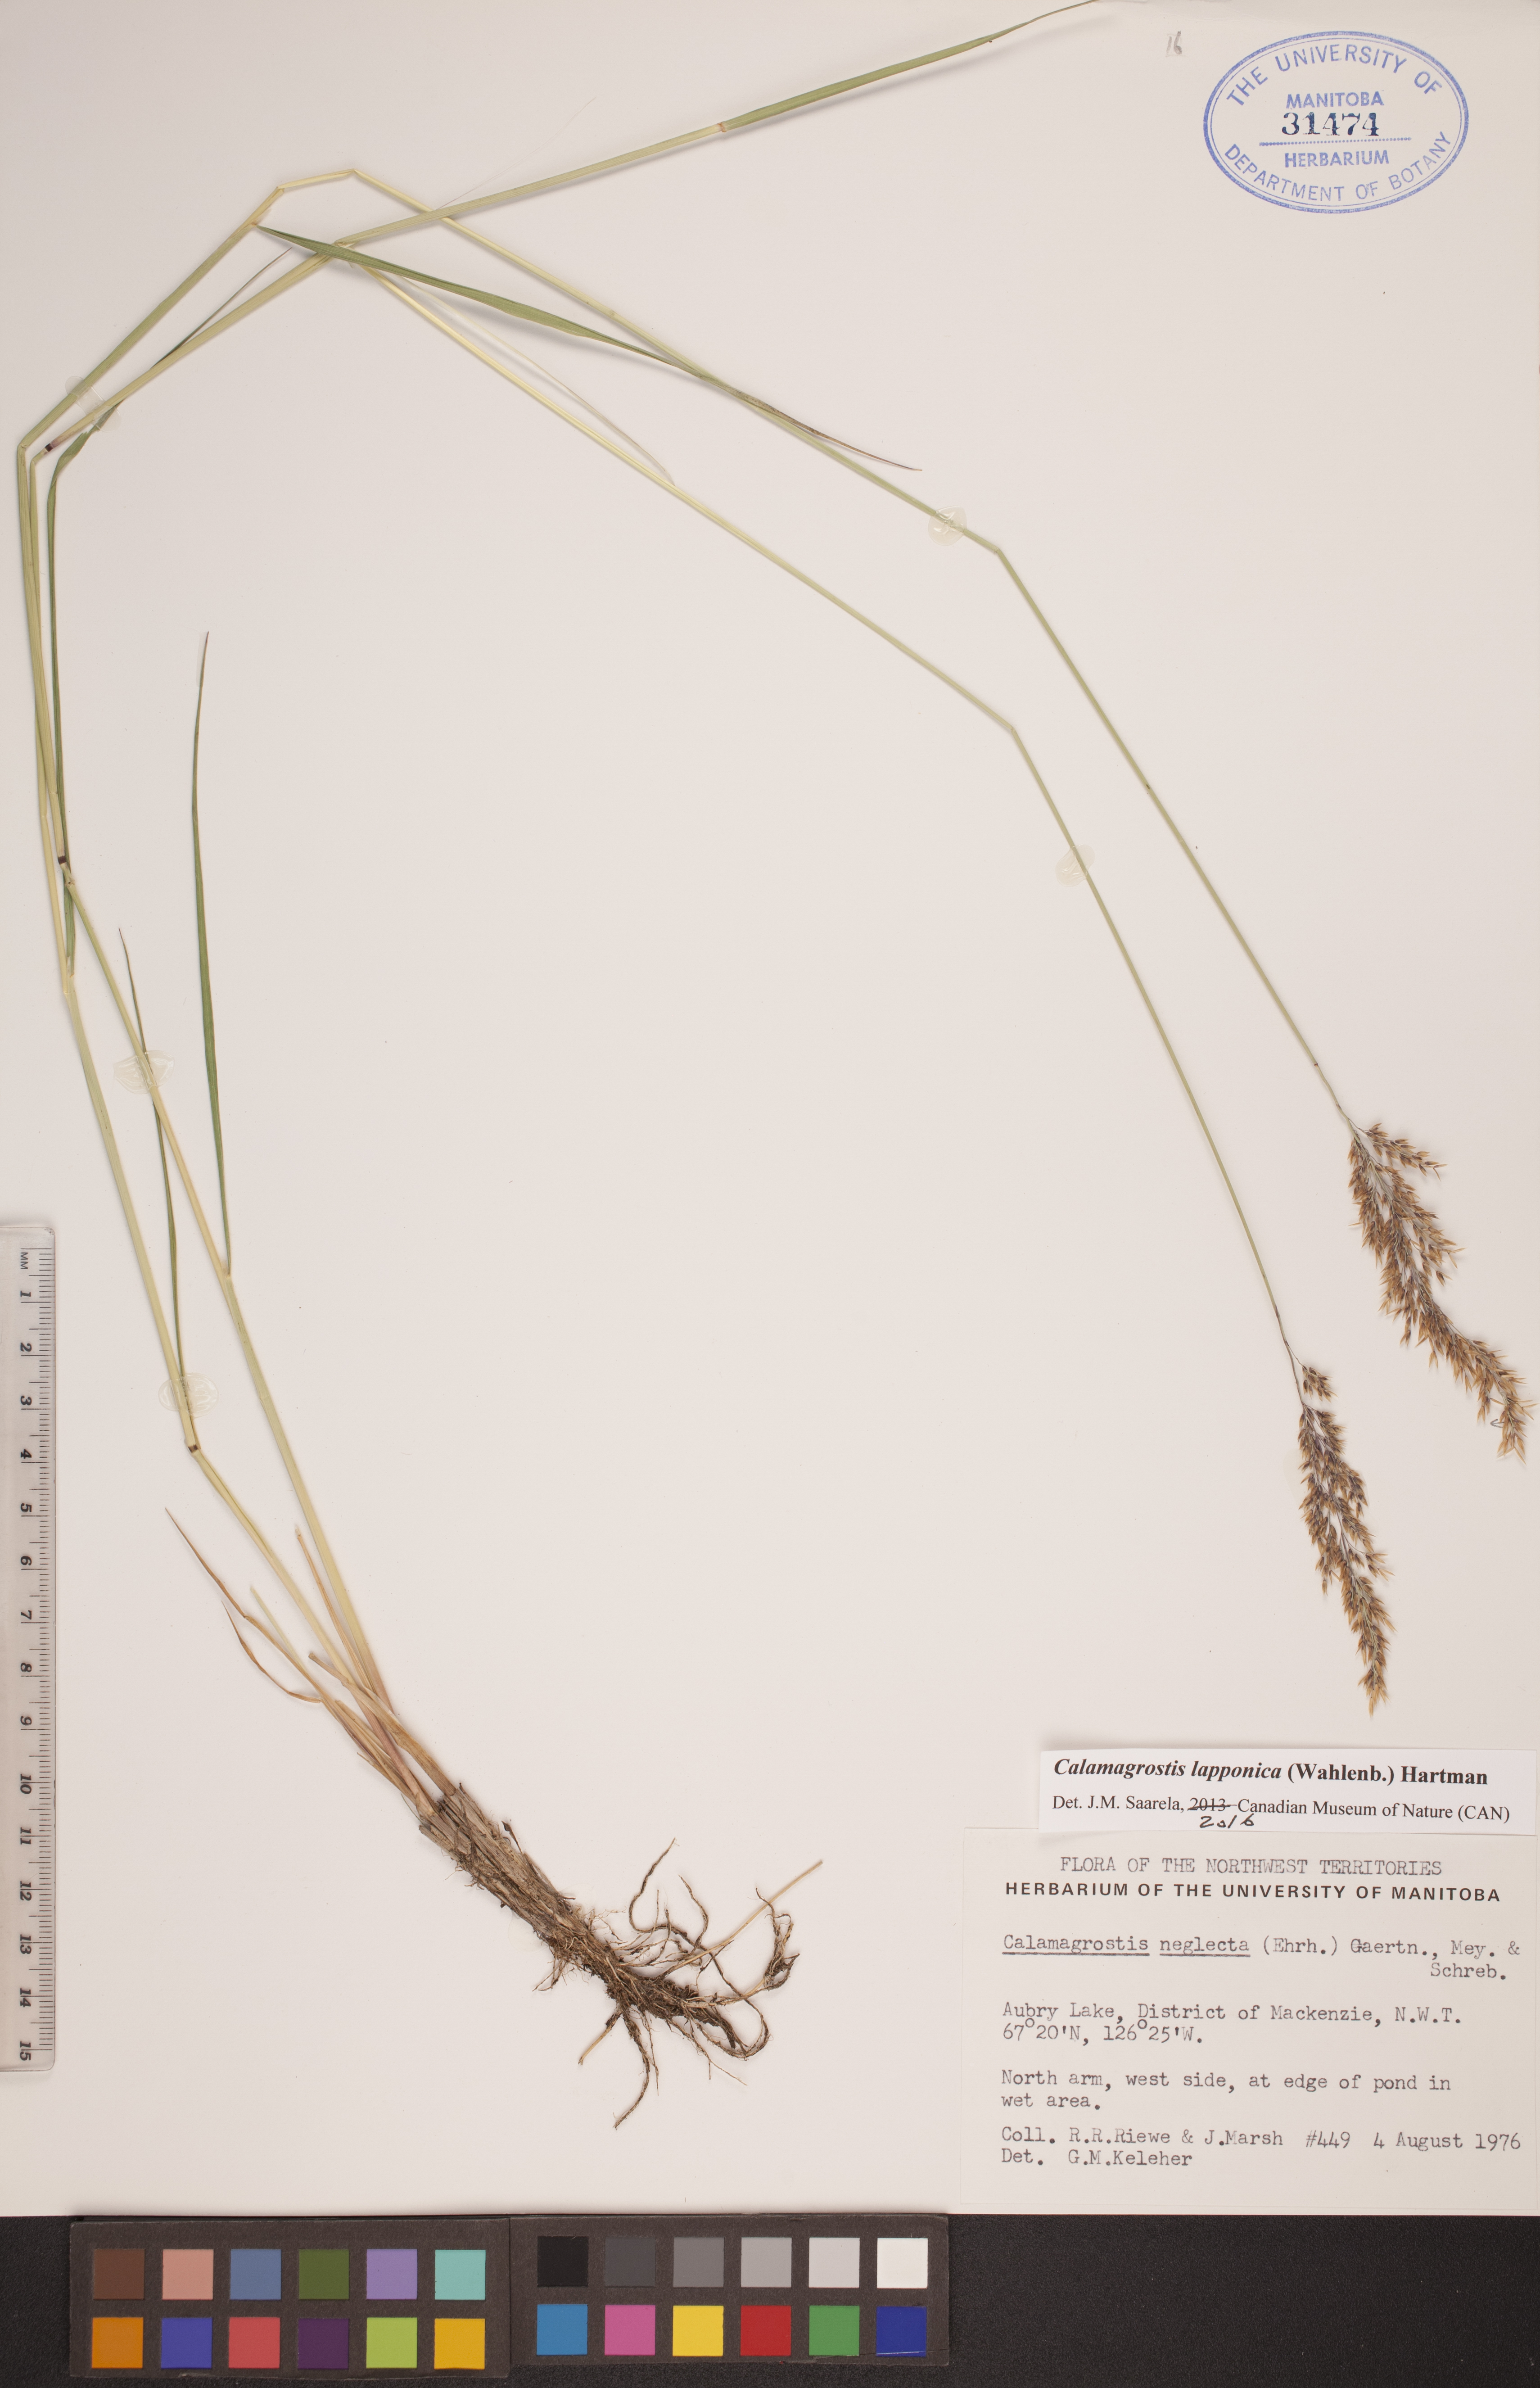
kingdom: Plantae
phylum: Tracheophyta
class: Liliopsida
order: Poales
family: Poaceae
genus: Calamagrostis
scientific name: Calamagrostis lapponica
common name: Lapland reedgrass
